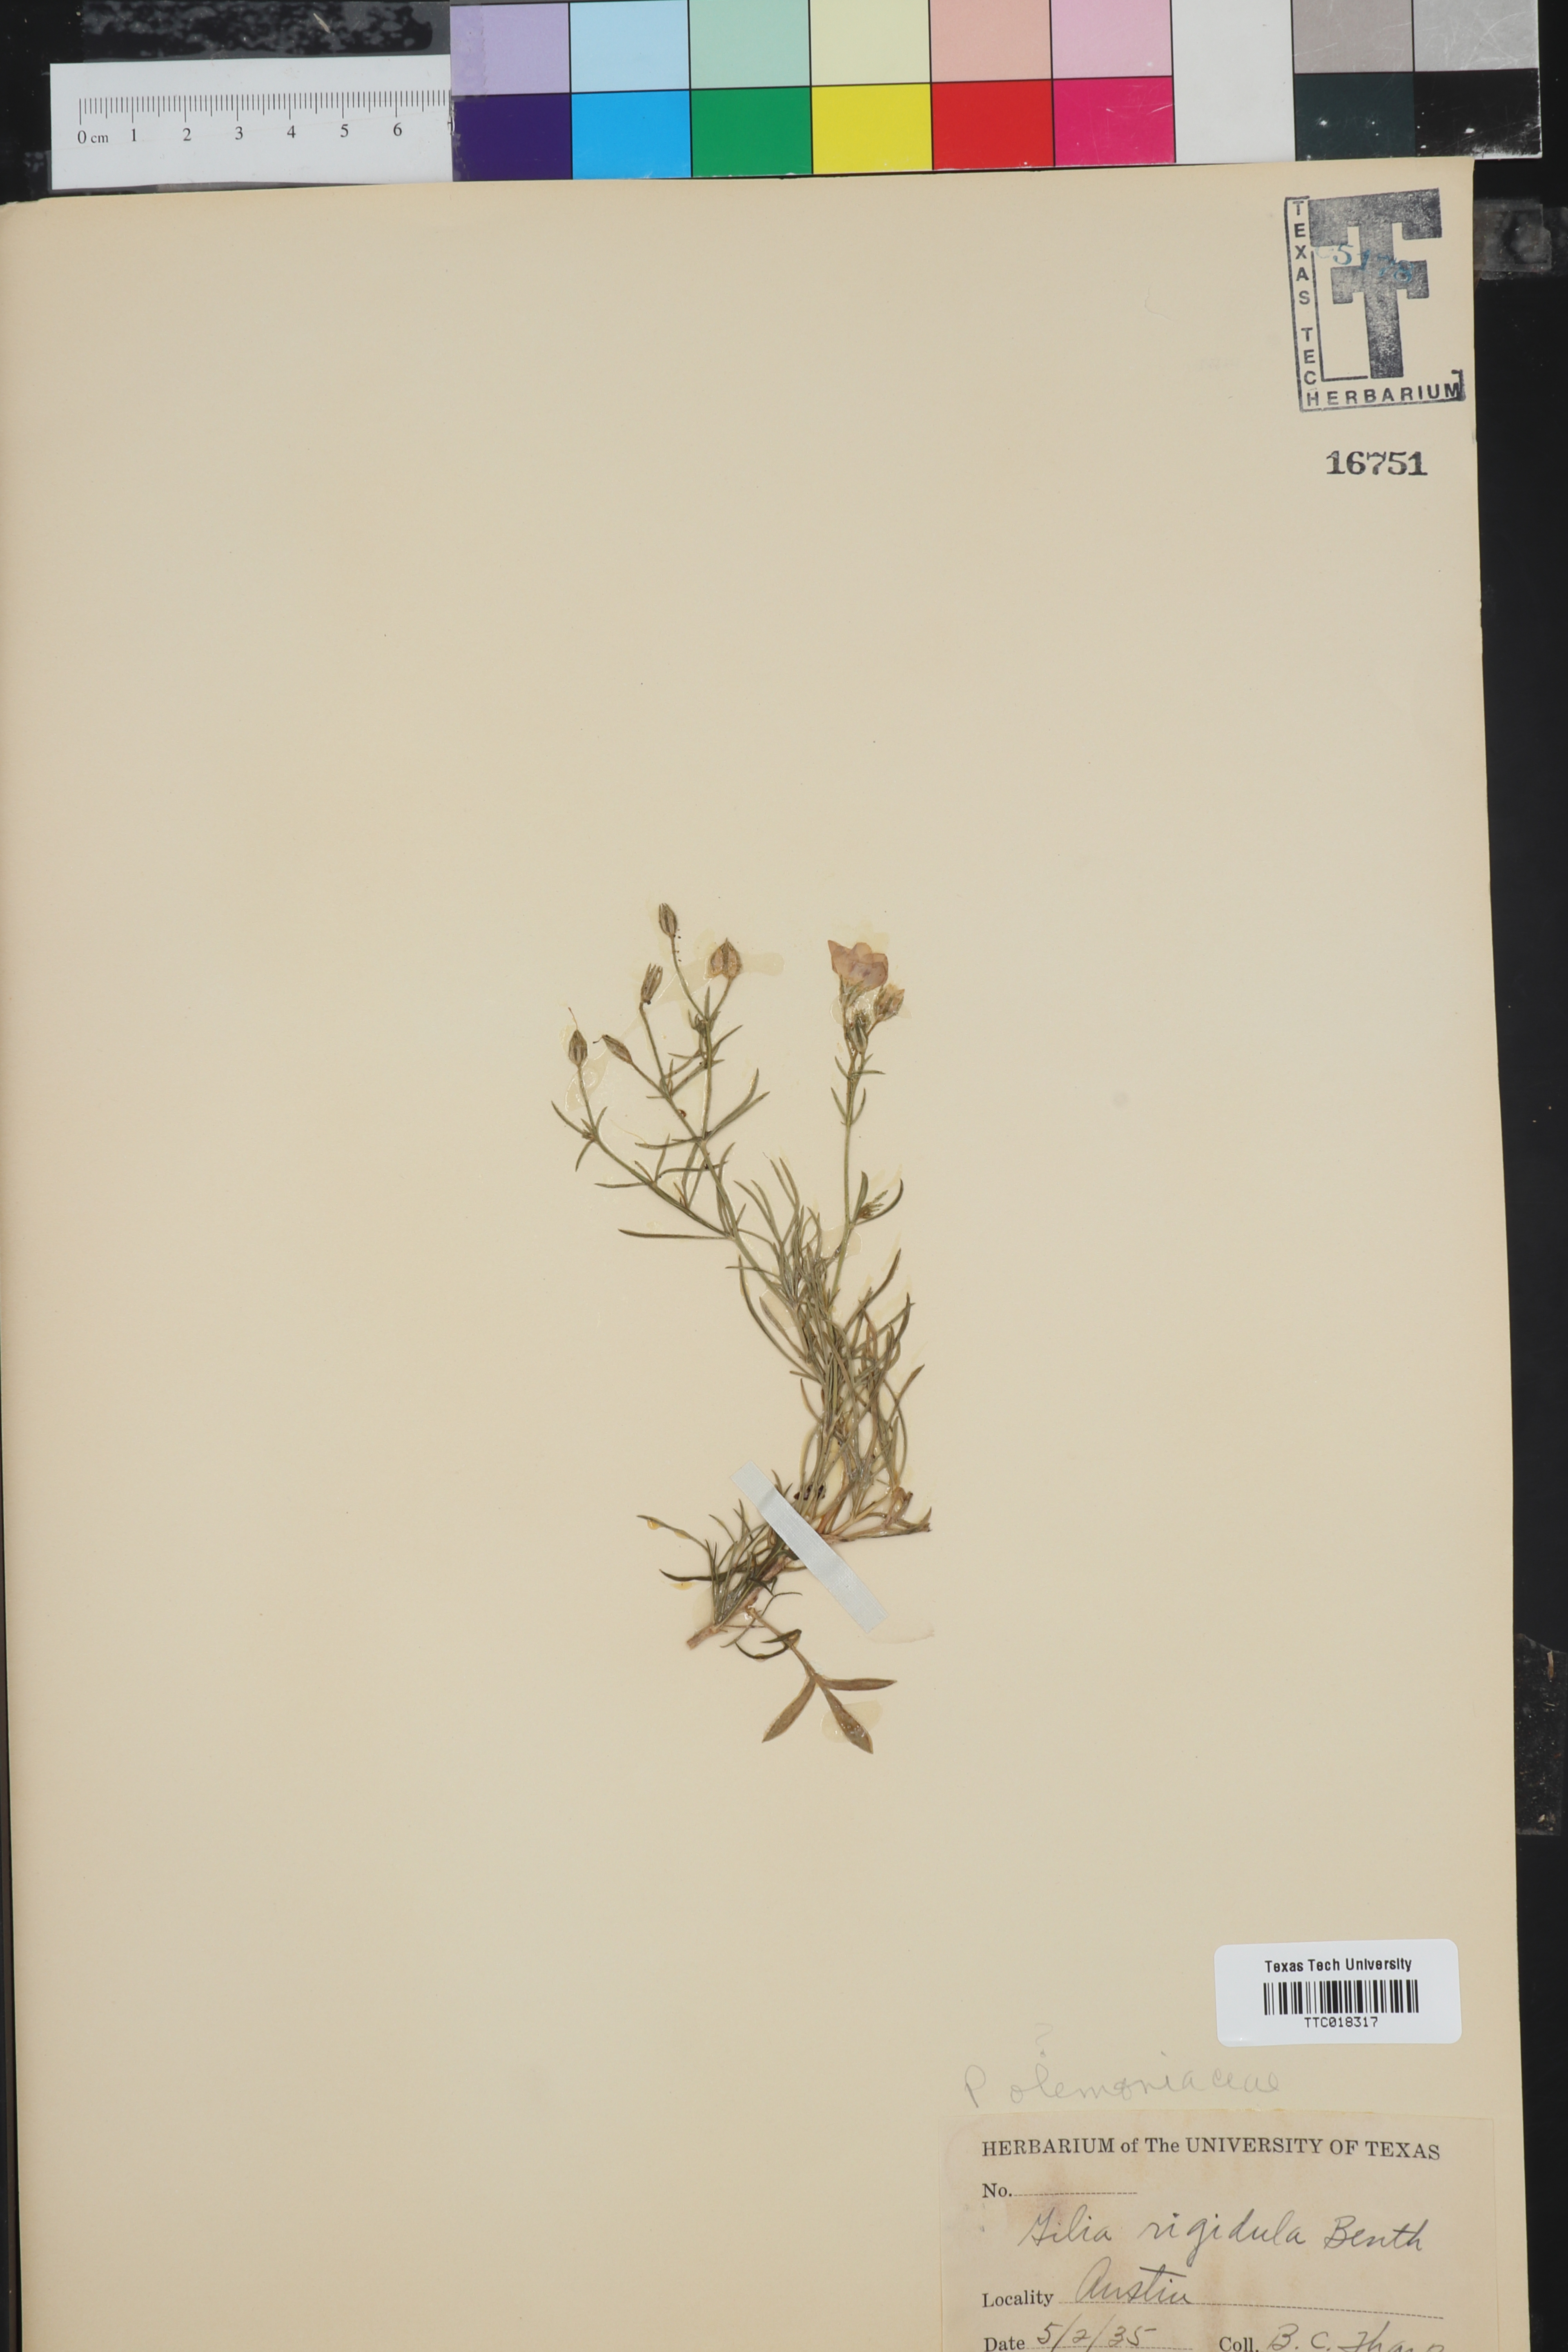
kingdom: Plantae
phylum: Tracheophyta
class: Magnoliopsida
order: Ericales
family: Polemoniaceae
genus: Giliastrum
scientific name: Giliastrum rigidulum
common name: Bluebowls
